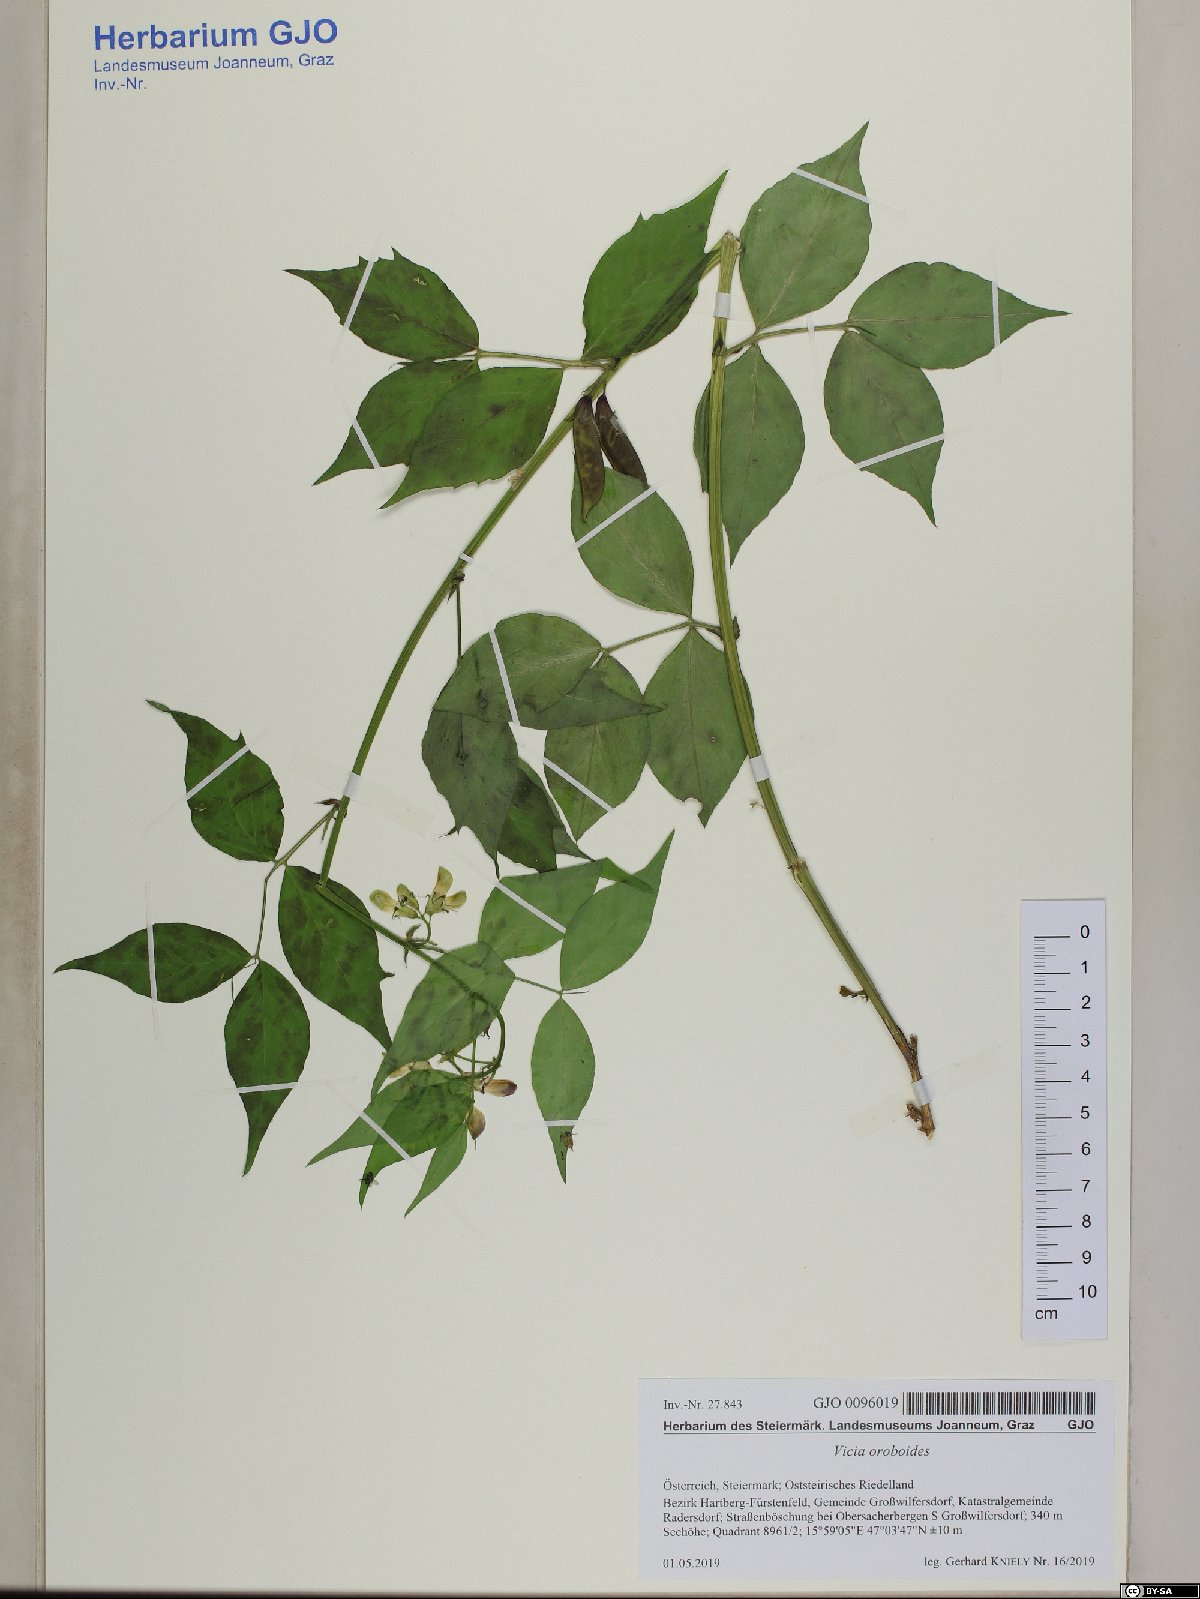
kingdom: Plantae
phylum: Tracheophyta
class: Magnoliopsida
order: Fabales
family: Fabaceae
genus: Vicia
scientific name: Vicia oroboides
